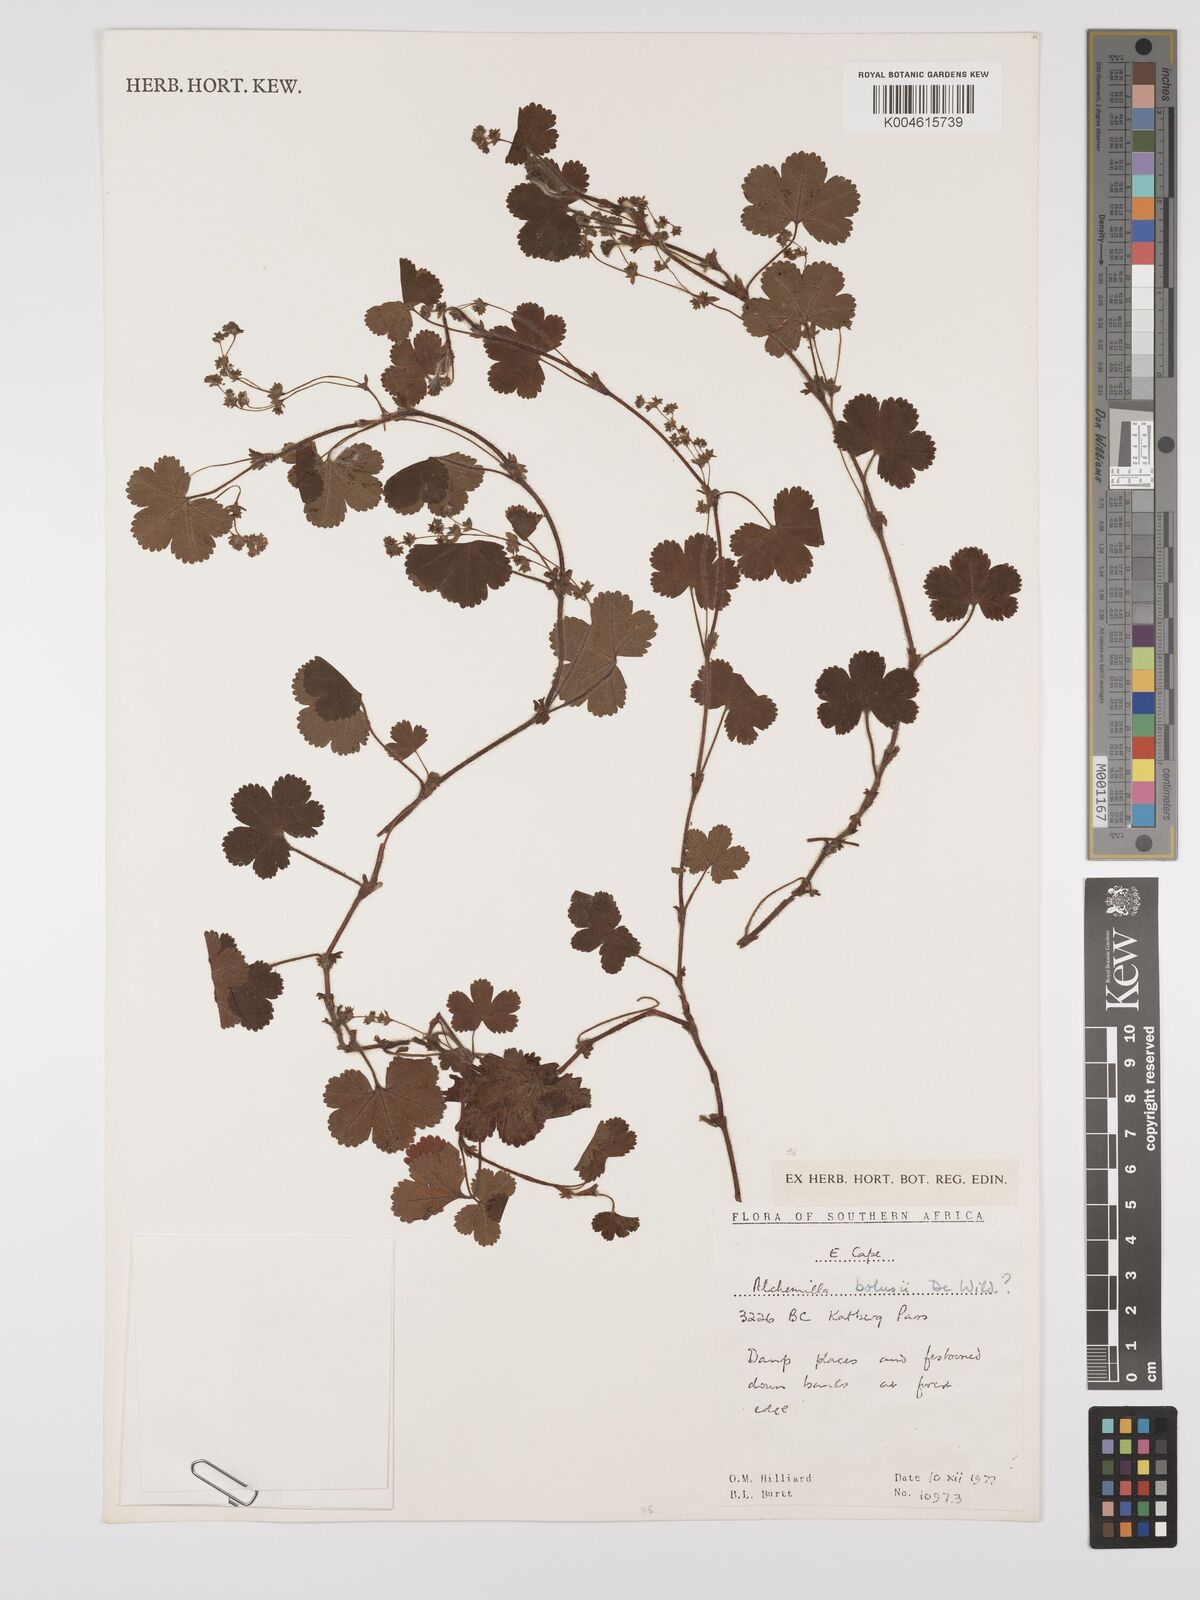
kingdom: Plantae
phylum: Tracheophyta
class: Magnoliopsida
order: Rosales
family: Rosaceae
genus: Alchemilla
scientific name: Alchemilla bolusii
